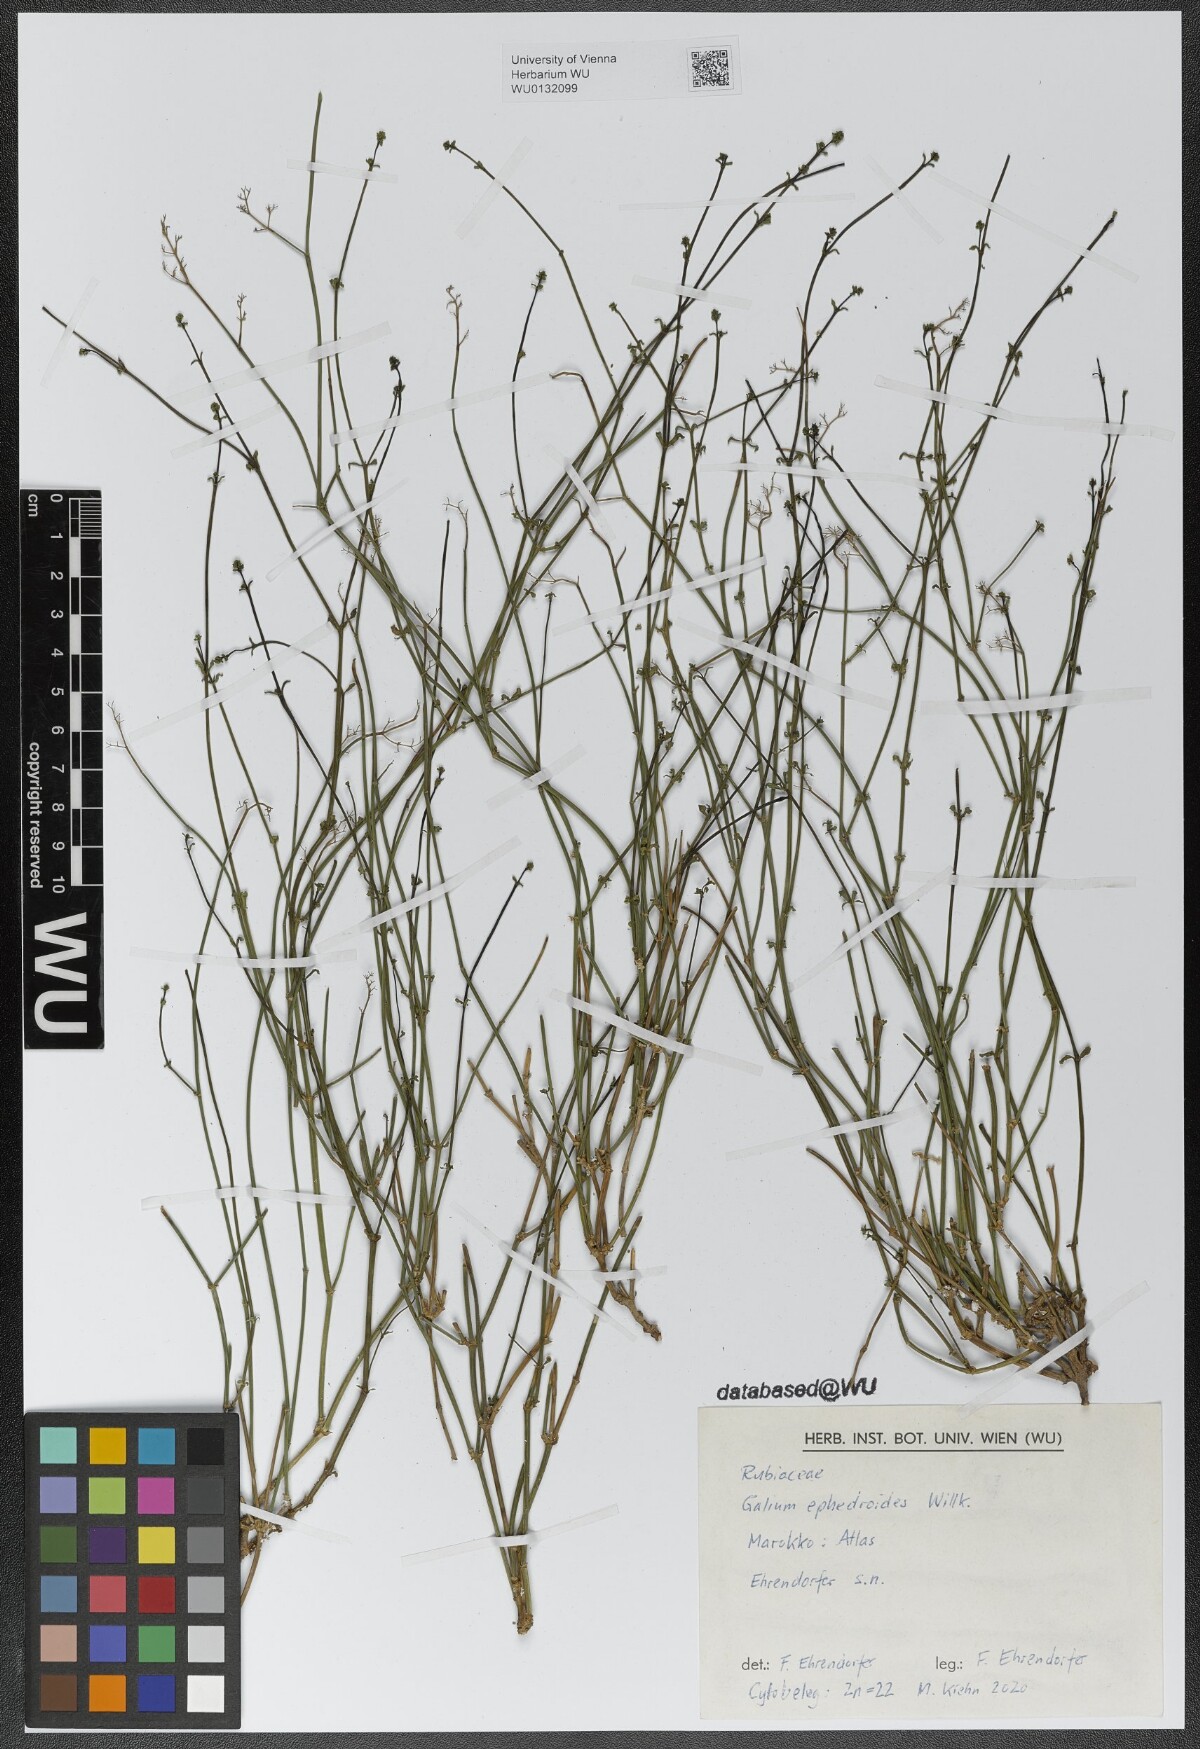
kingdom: Plantae
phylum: Tracheophyta
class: Magnoliopsida
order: Gentianales
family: Rubiaceae
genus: Galium
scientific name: Galium ephedroides
